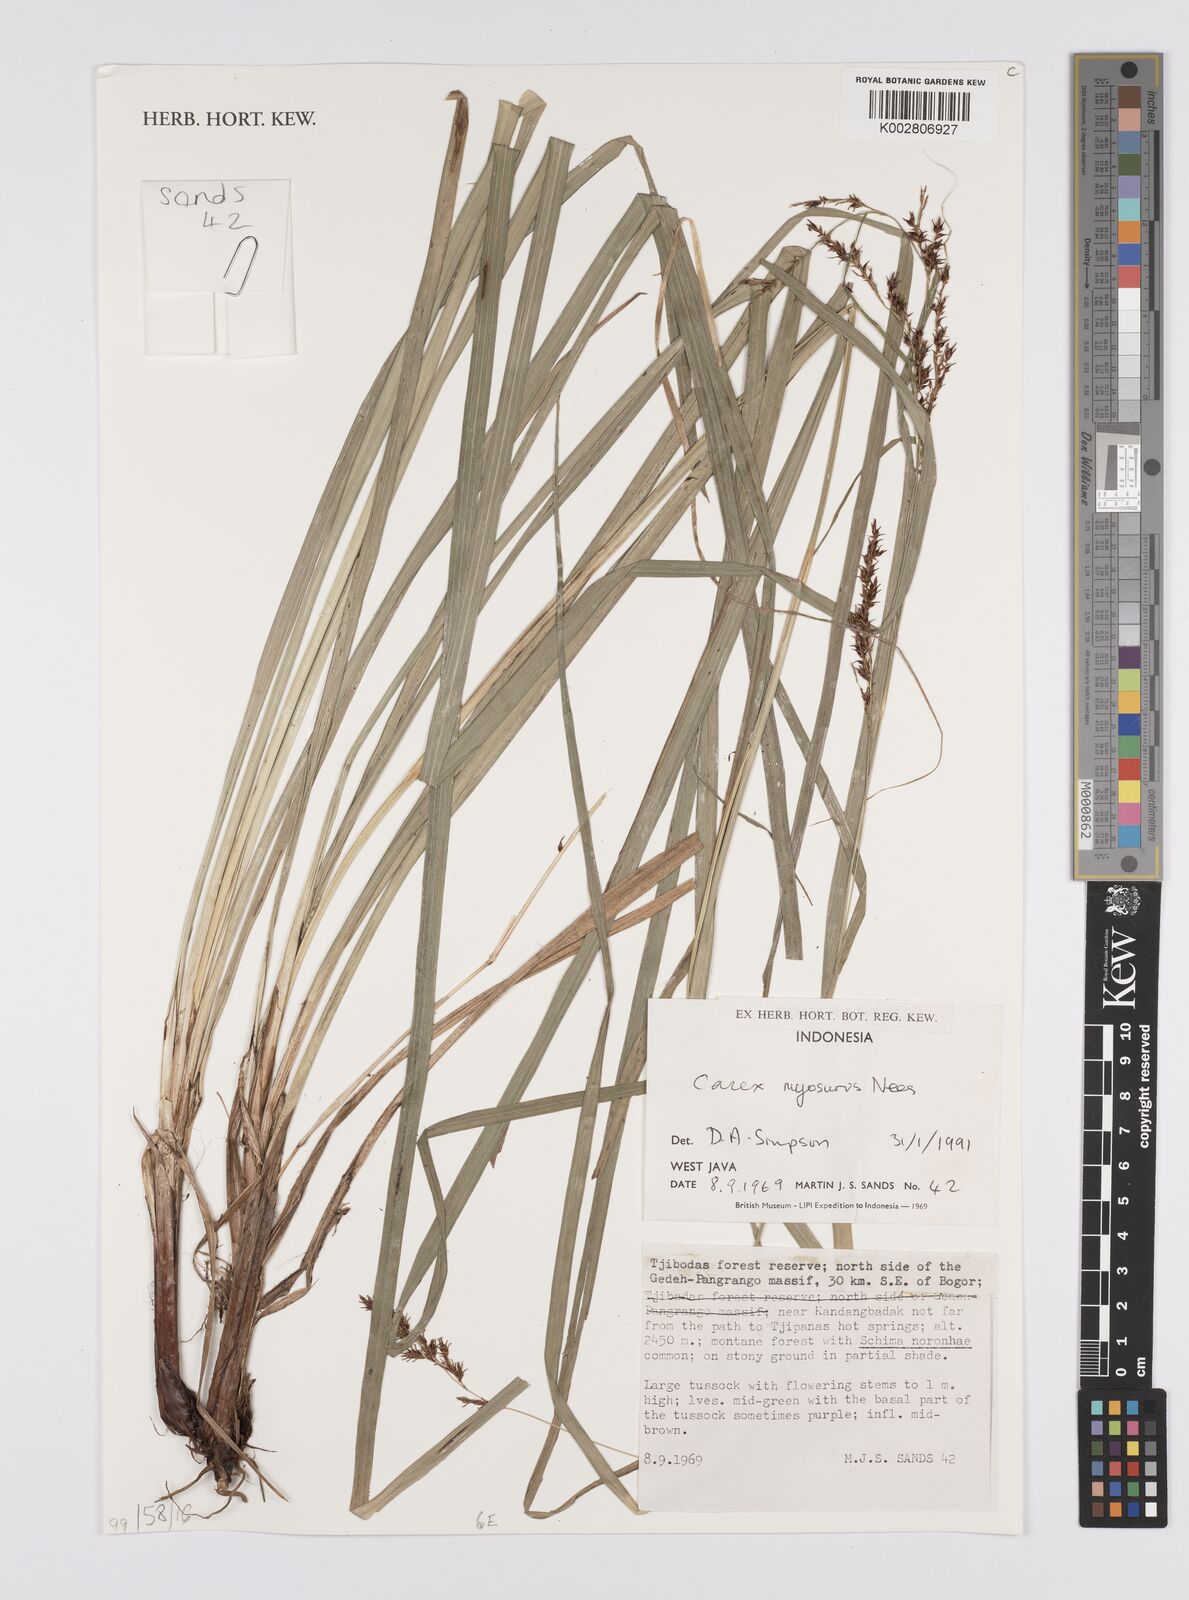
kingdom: Plantae
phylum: Tracheophyta
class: Liliopsida
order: Poales
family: Cyperaceae
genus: Carex
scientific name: Carex myosurus
